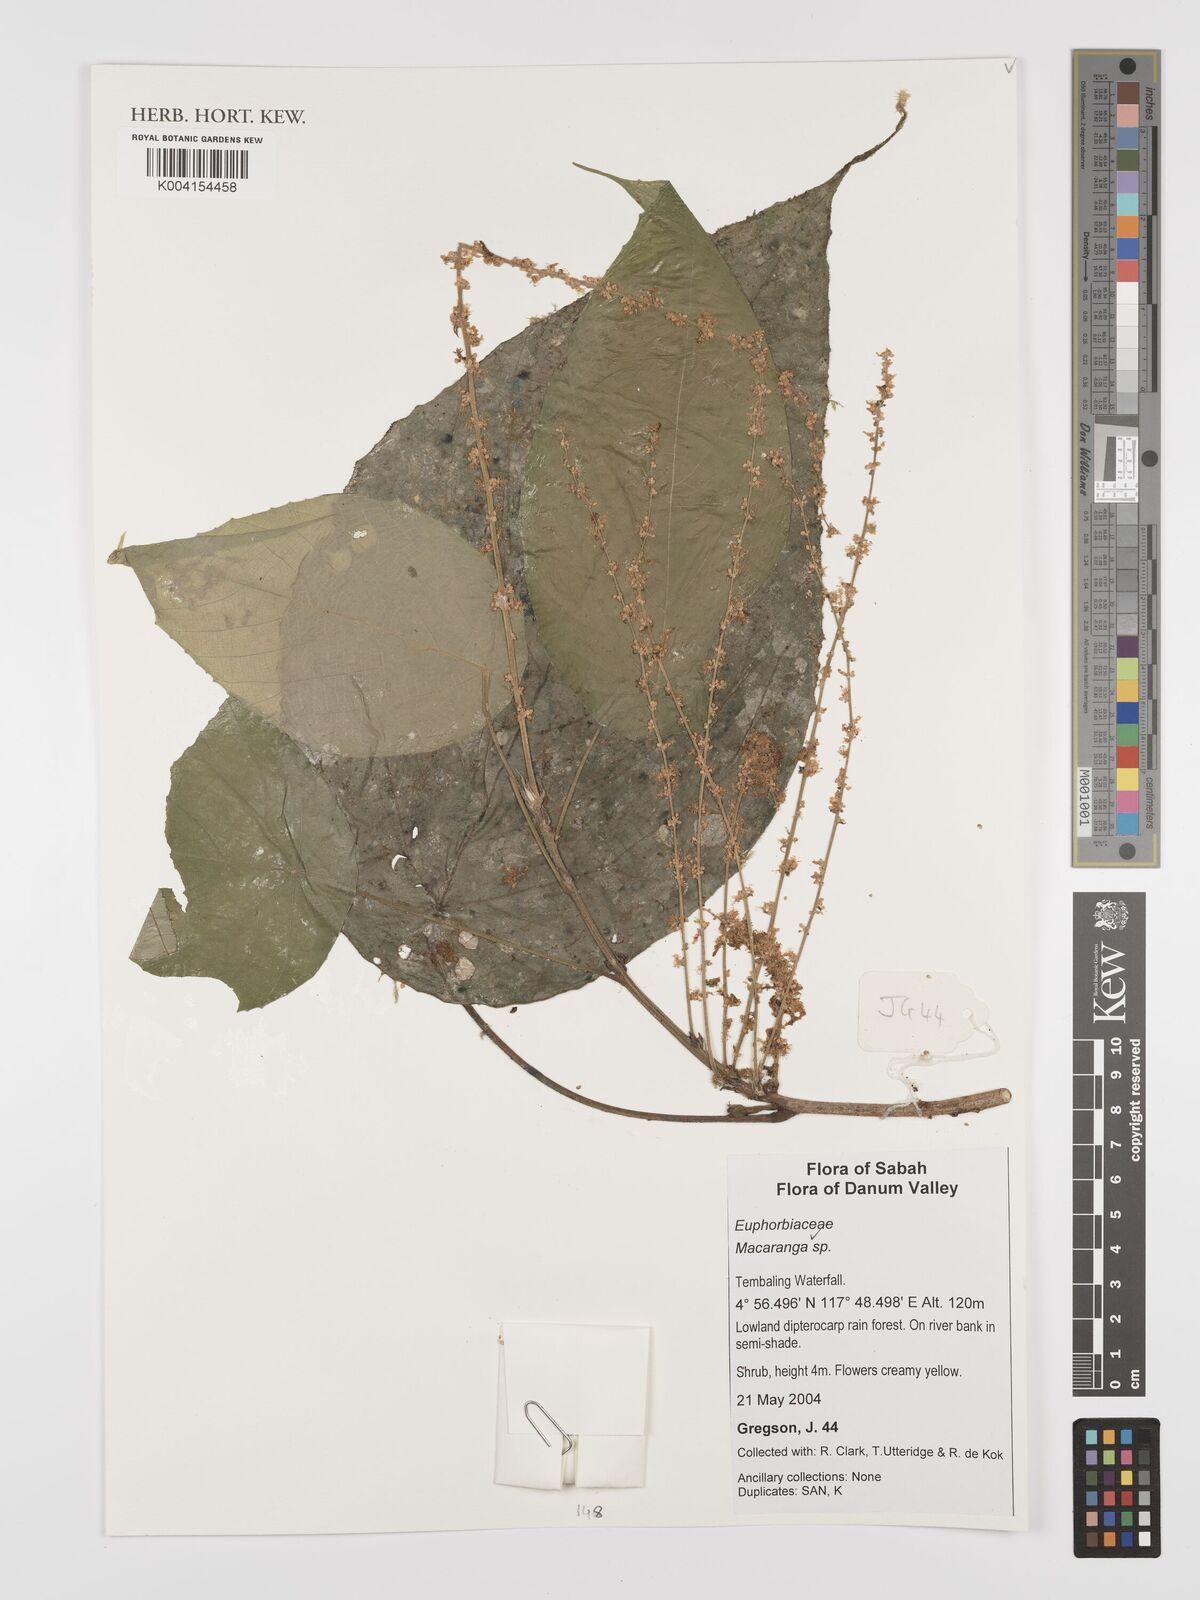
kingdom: Plantae
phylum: Tracheophyta
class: Magnoliopsida
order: Malpighiales
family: Euphorbiaceae
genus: Macaranga
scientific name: Macaranga
